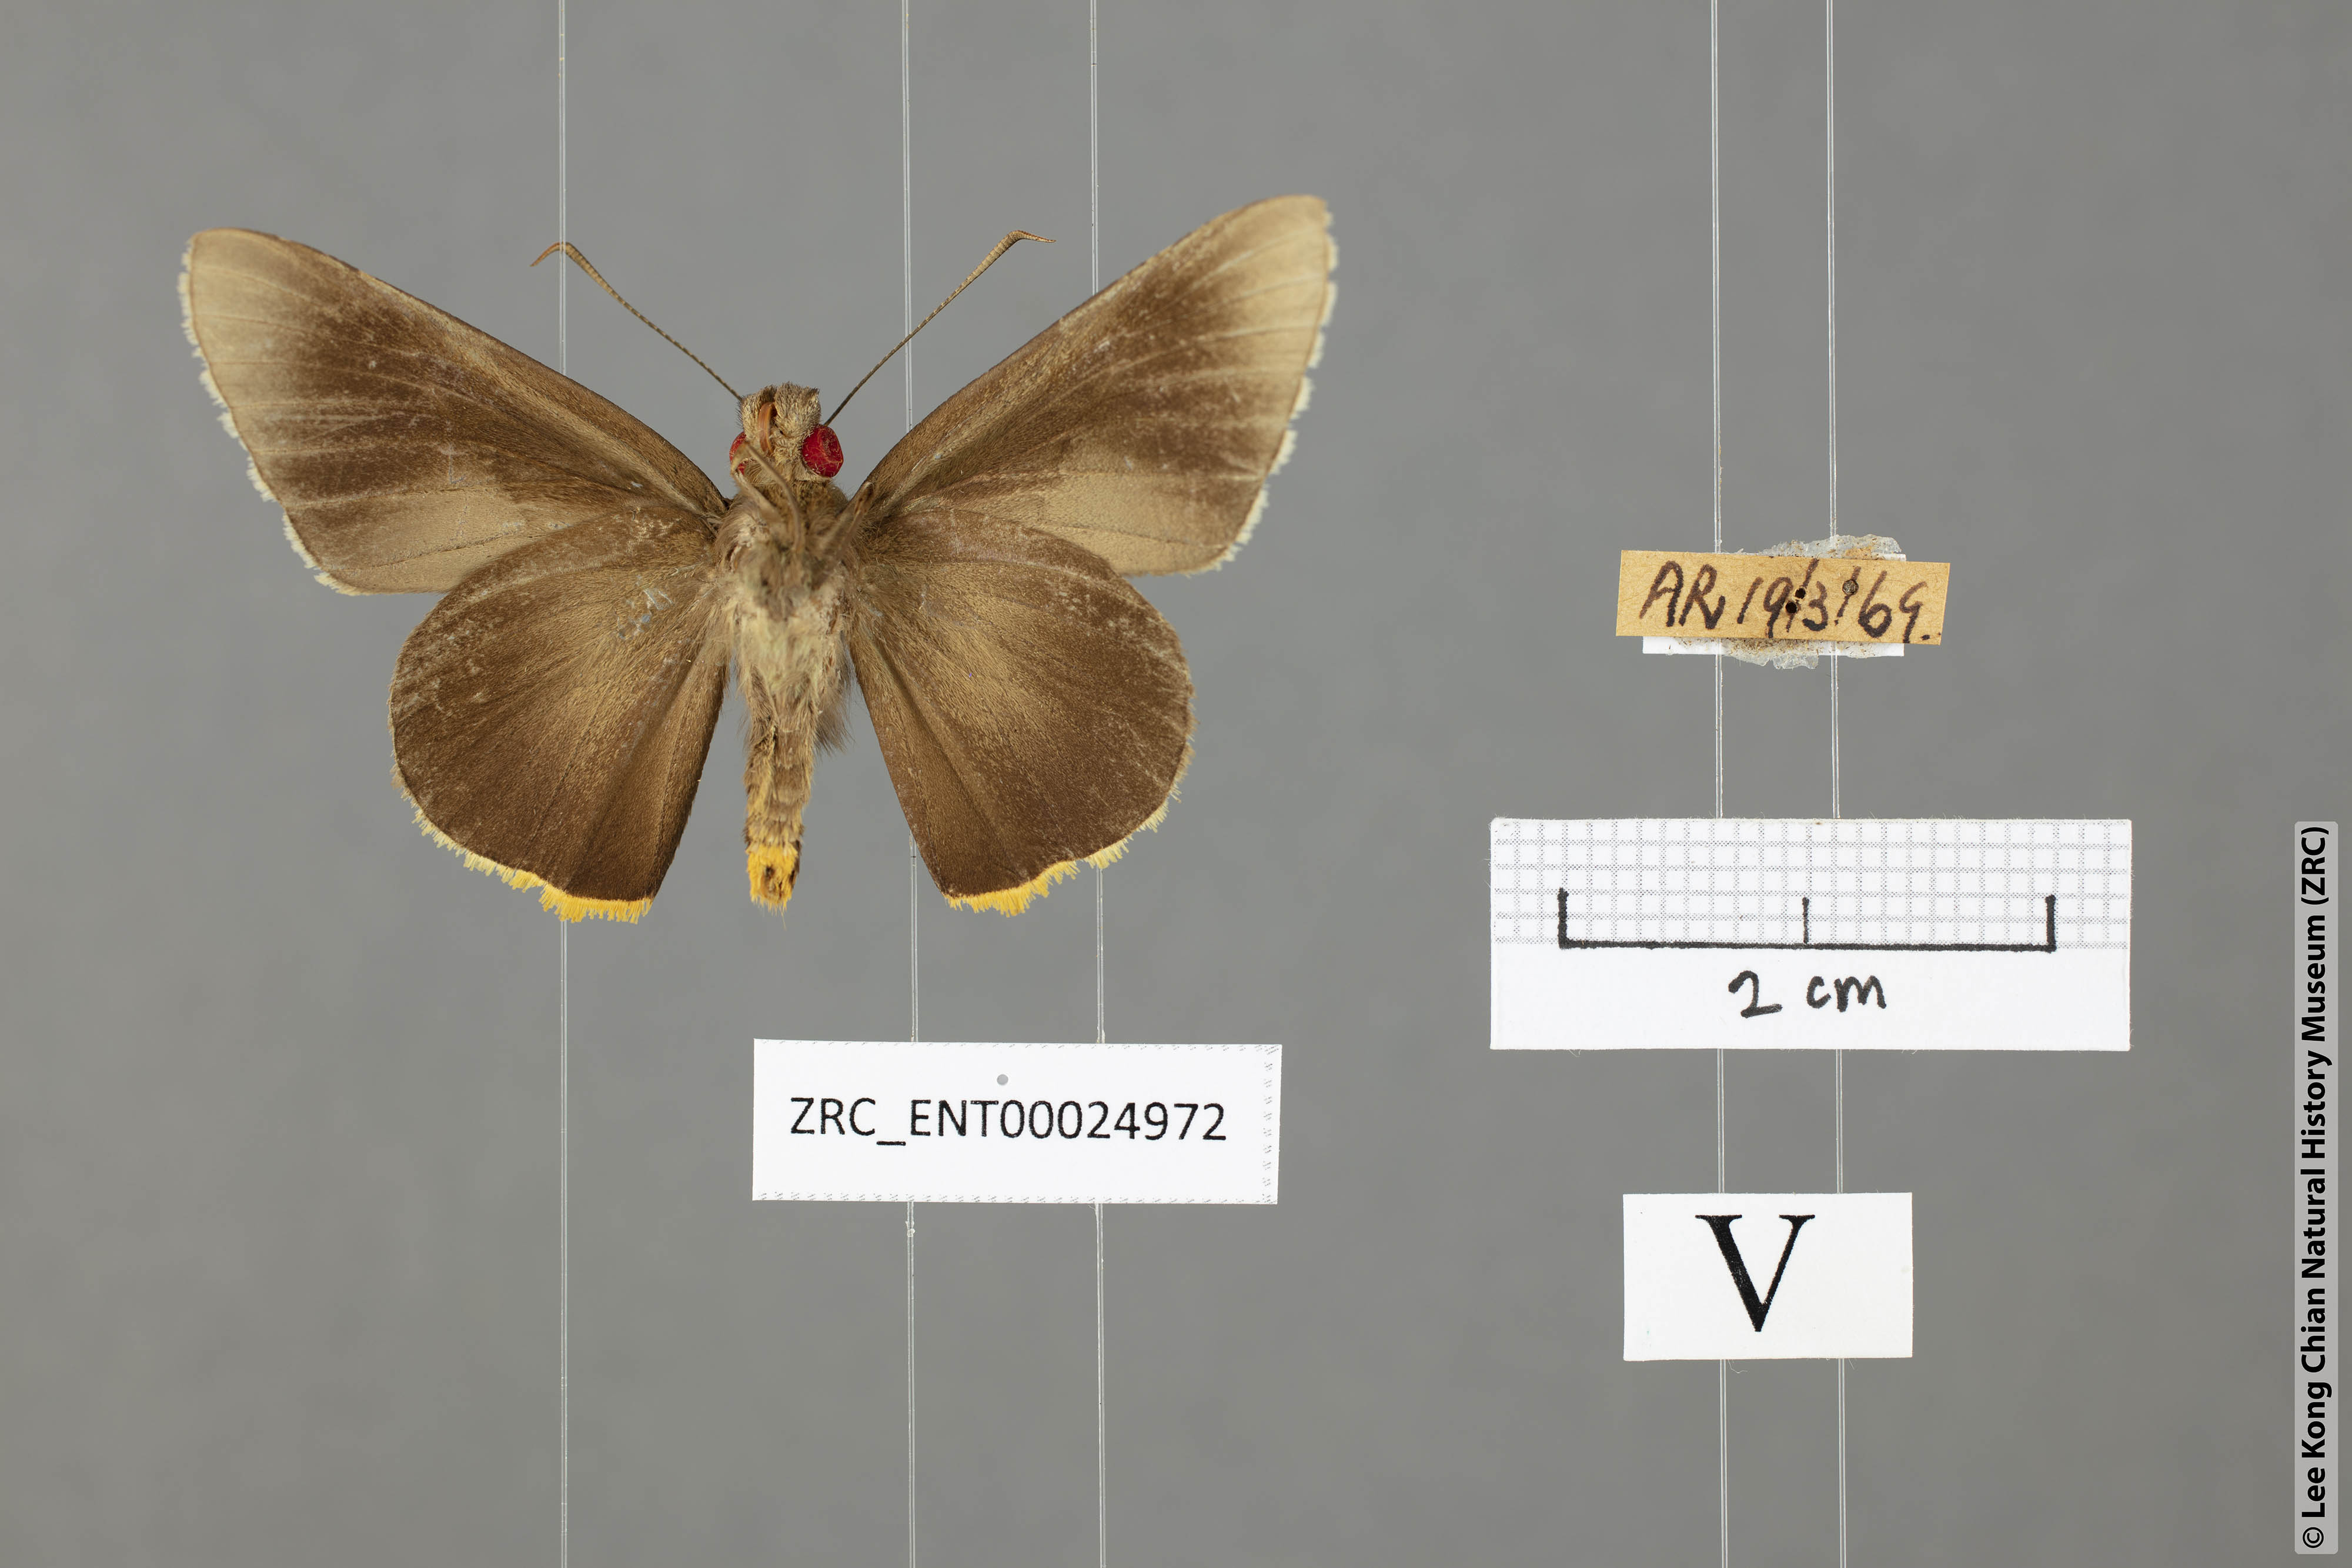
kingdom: Animalia
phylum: Arthropoda
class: Insecta
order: Lepidoptera
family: Hesperiidae
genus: Matapa
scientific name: Matapa cresta
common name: Fringed redeye
